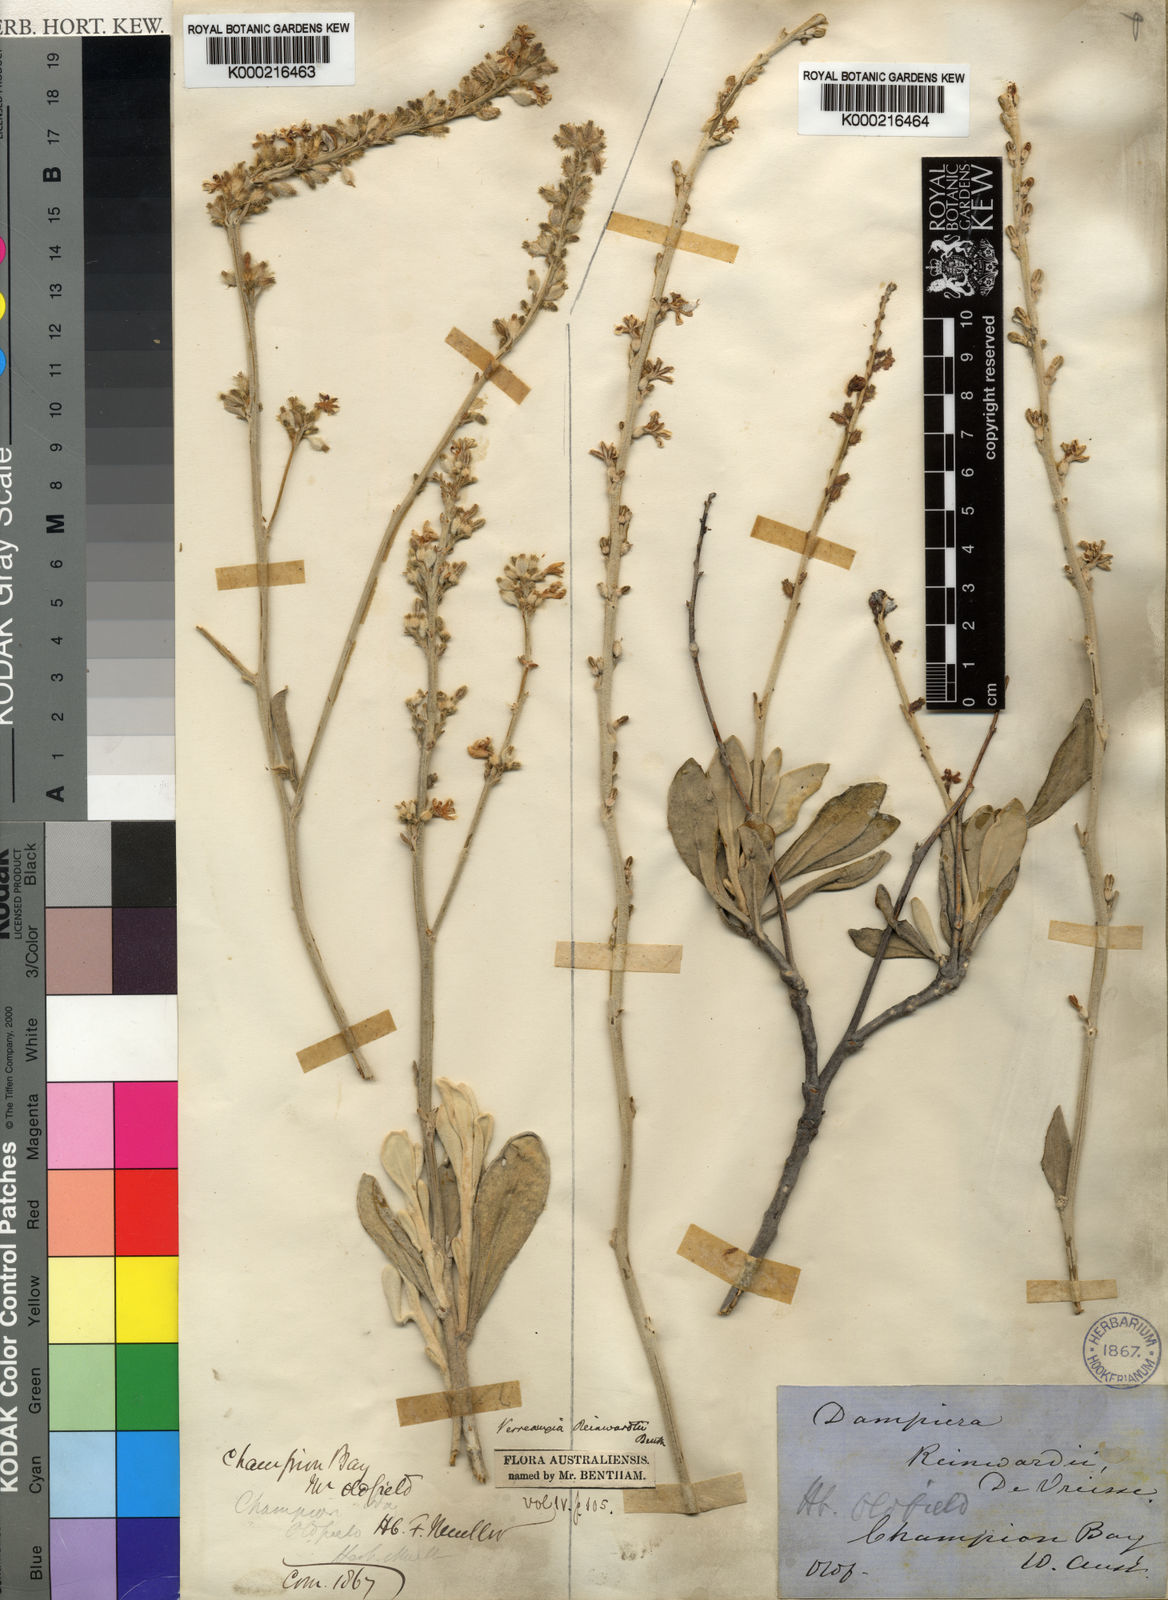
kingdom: Plantae
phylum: Tracheophyta
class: Magnoliopsida
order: Asterales
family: Goodeniaceae
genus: Goodenia
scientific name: Goodenia reinwardtii
